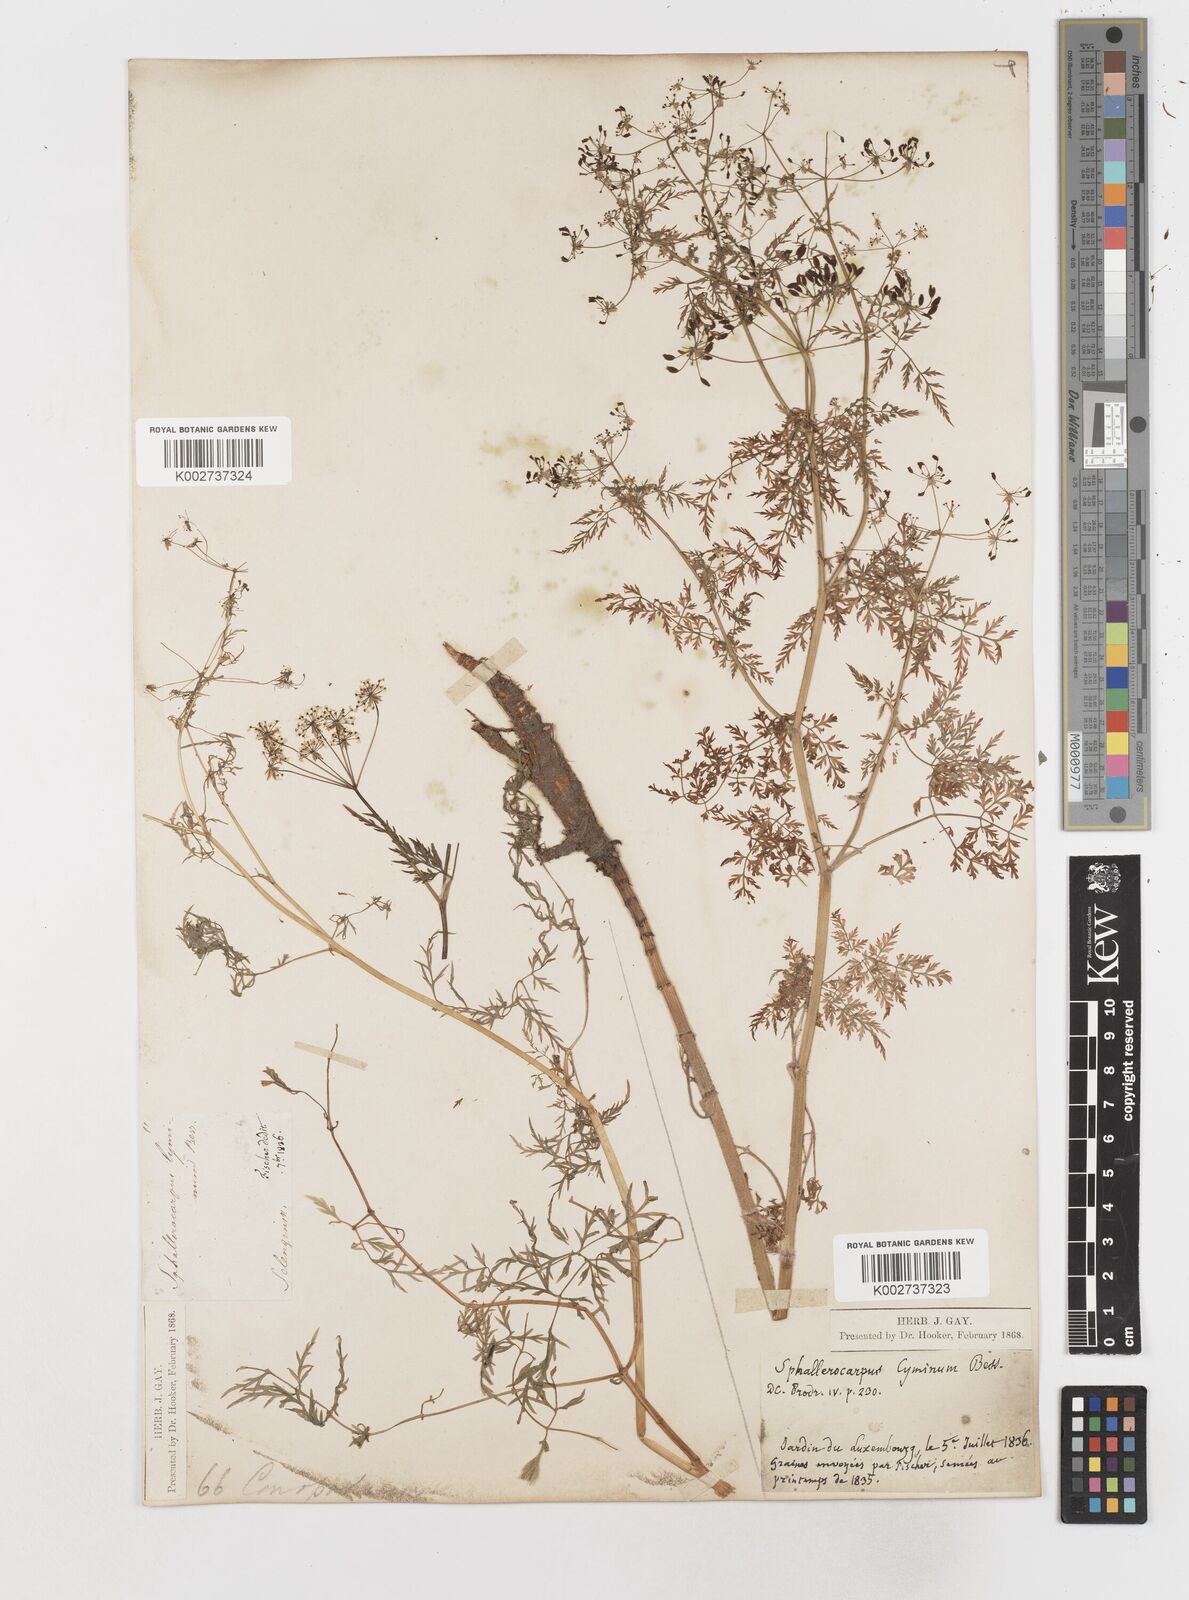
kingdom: Plantae
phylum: Tracheophyta
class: Magnoliopsida
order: Apiales
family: Apiaceae
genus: Sphallerocarpus
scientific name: Sphallerocarpus gracilis
